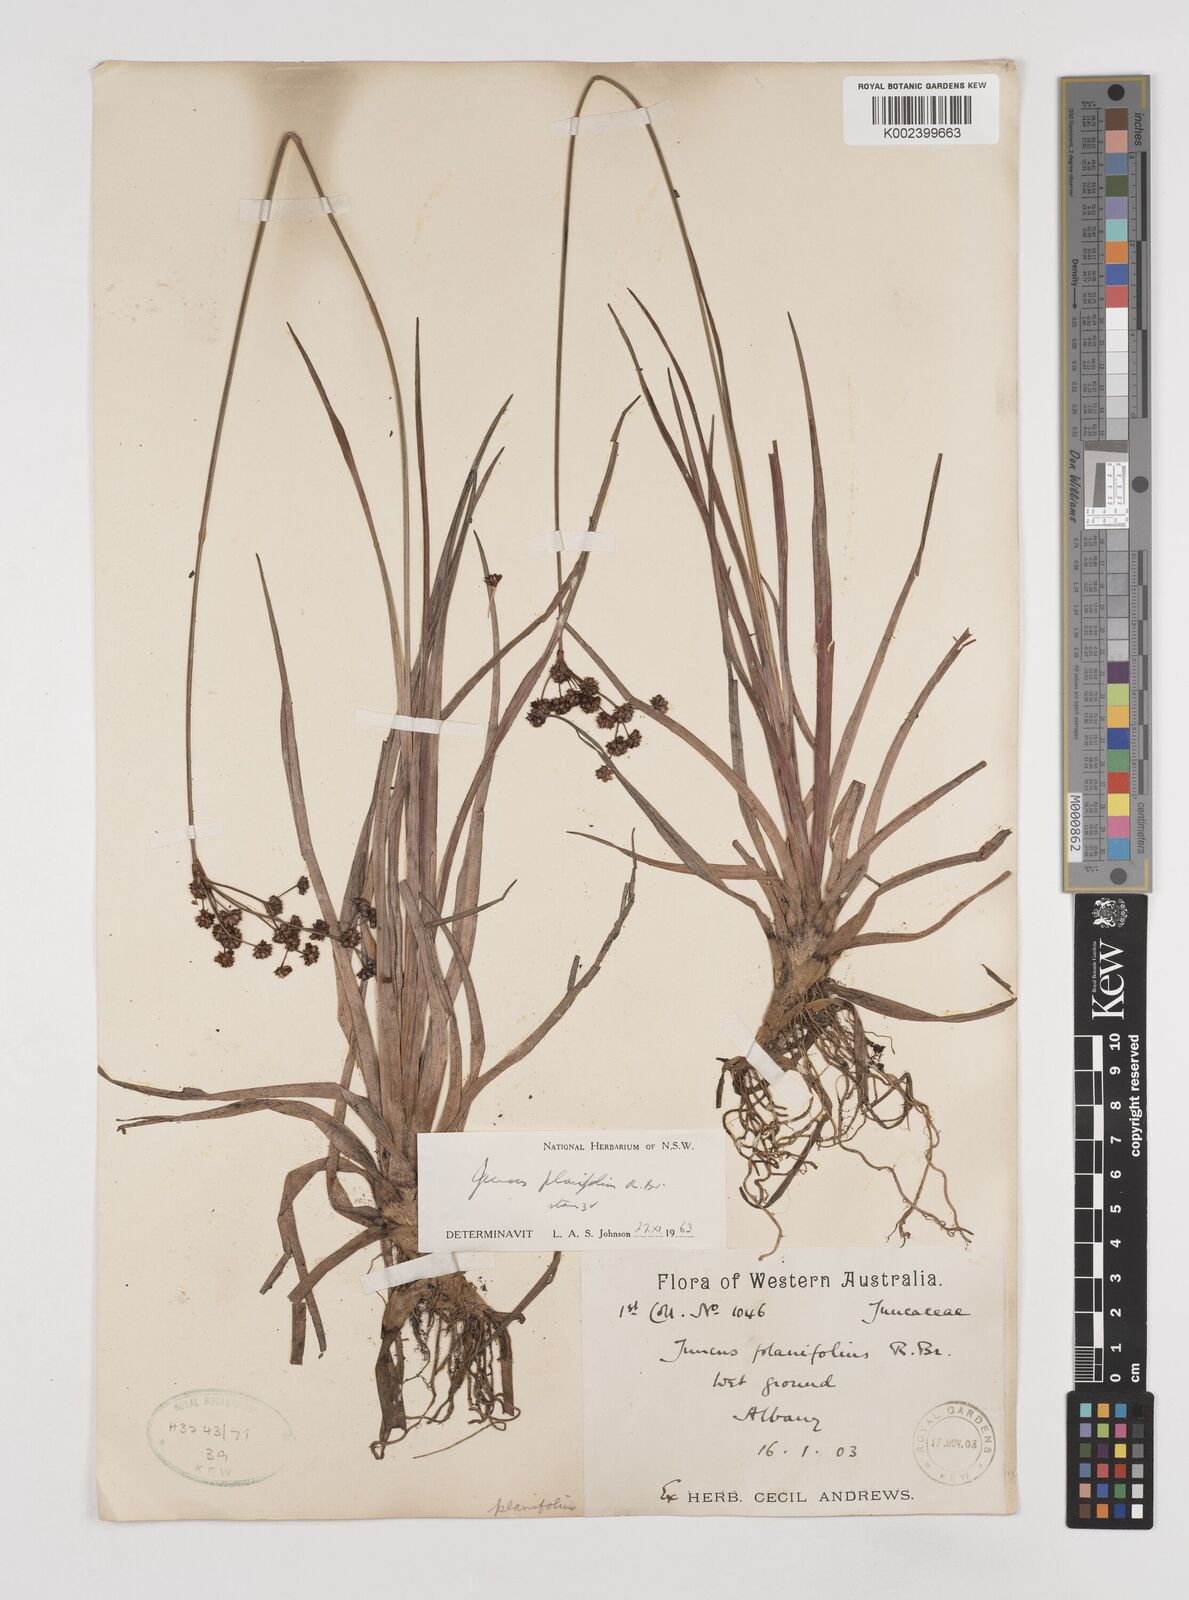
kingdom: Plantae
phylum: Tracheophyta
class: Liliopsida
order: Poales
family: Juncaceae
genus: Juncus
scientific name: Juncus planifolius
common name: Broadleaf rush
